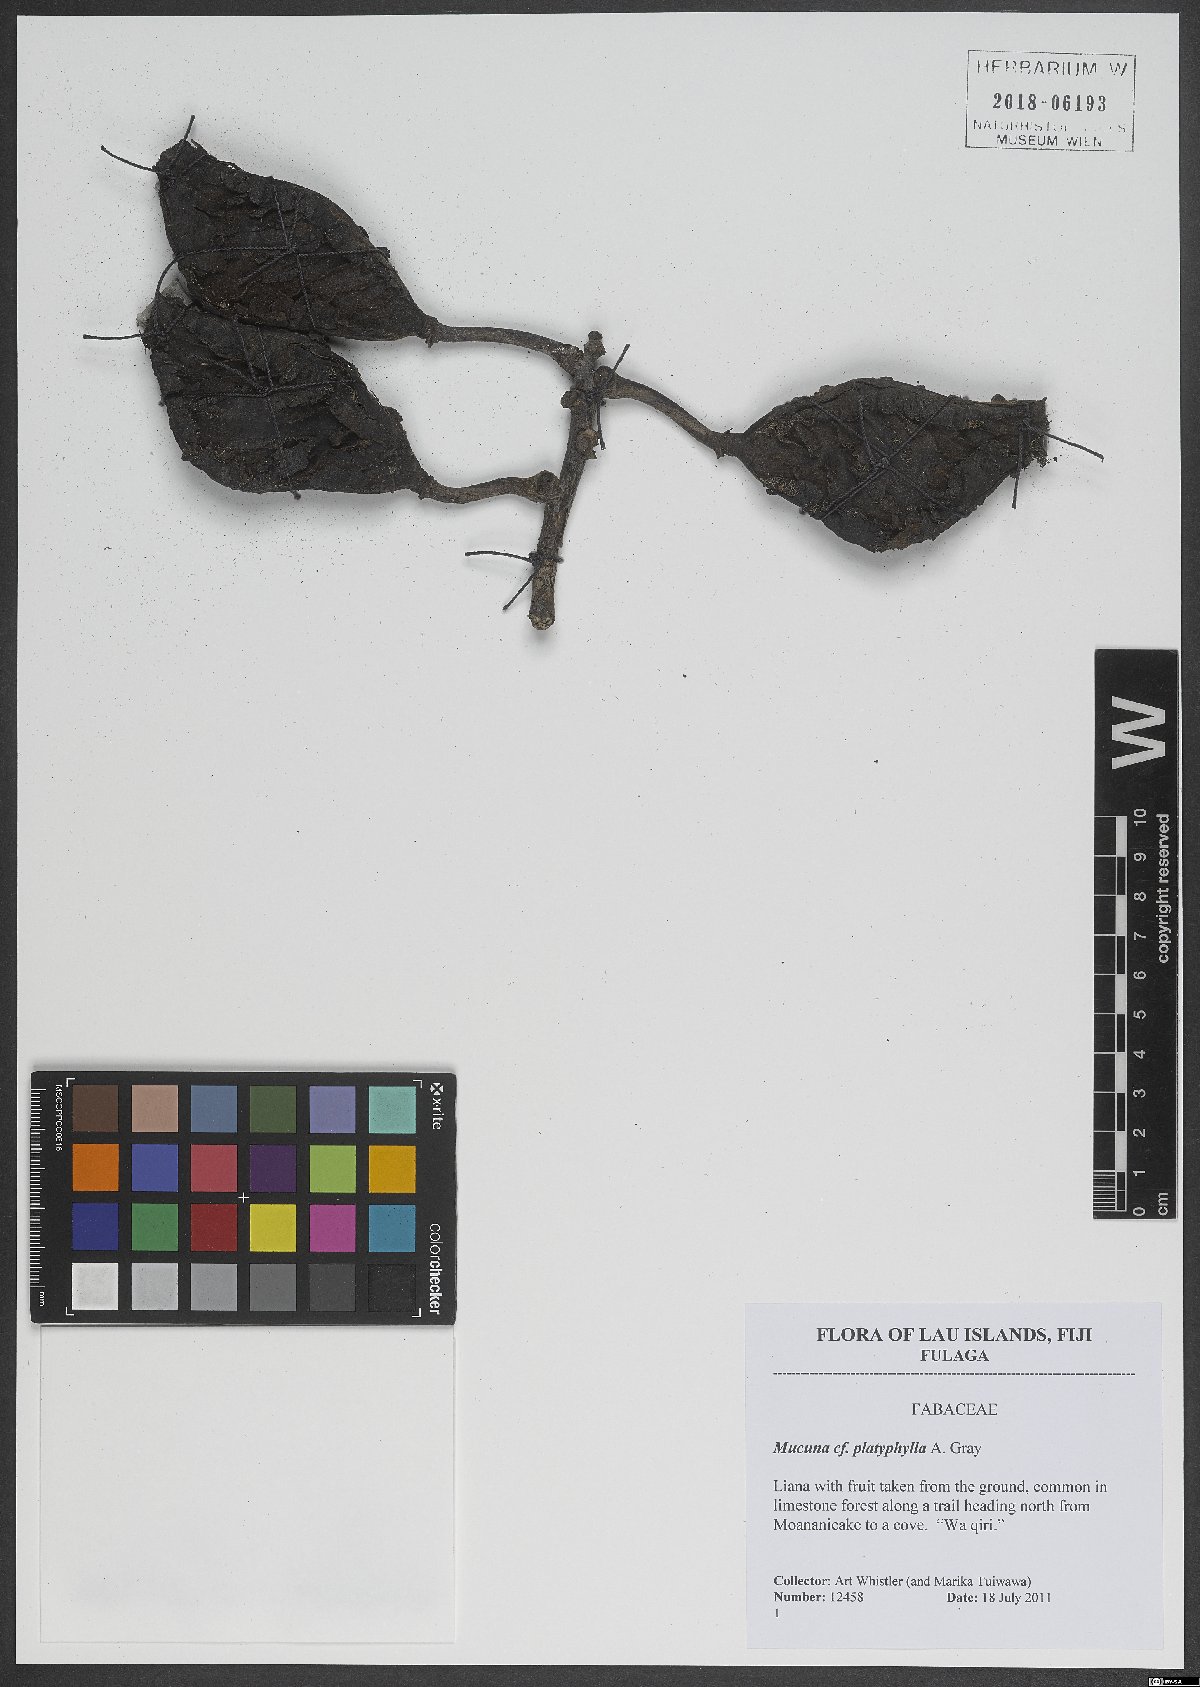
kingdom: Plantae
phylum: Tracheophyta
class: Magnoliopsida
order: Fabales
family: Fabaceae
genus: Mucuna
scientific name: Mucuna platyphylla
